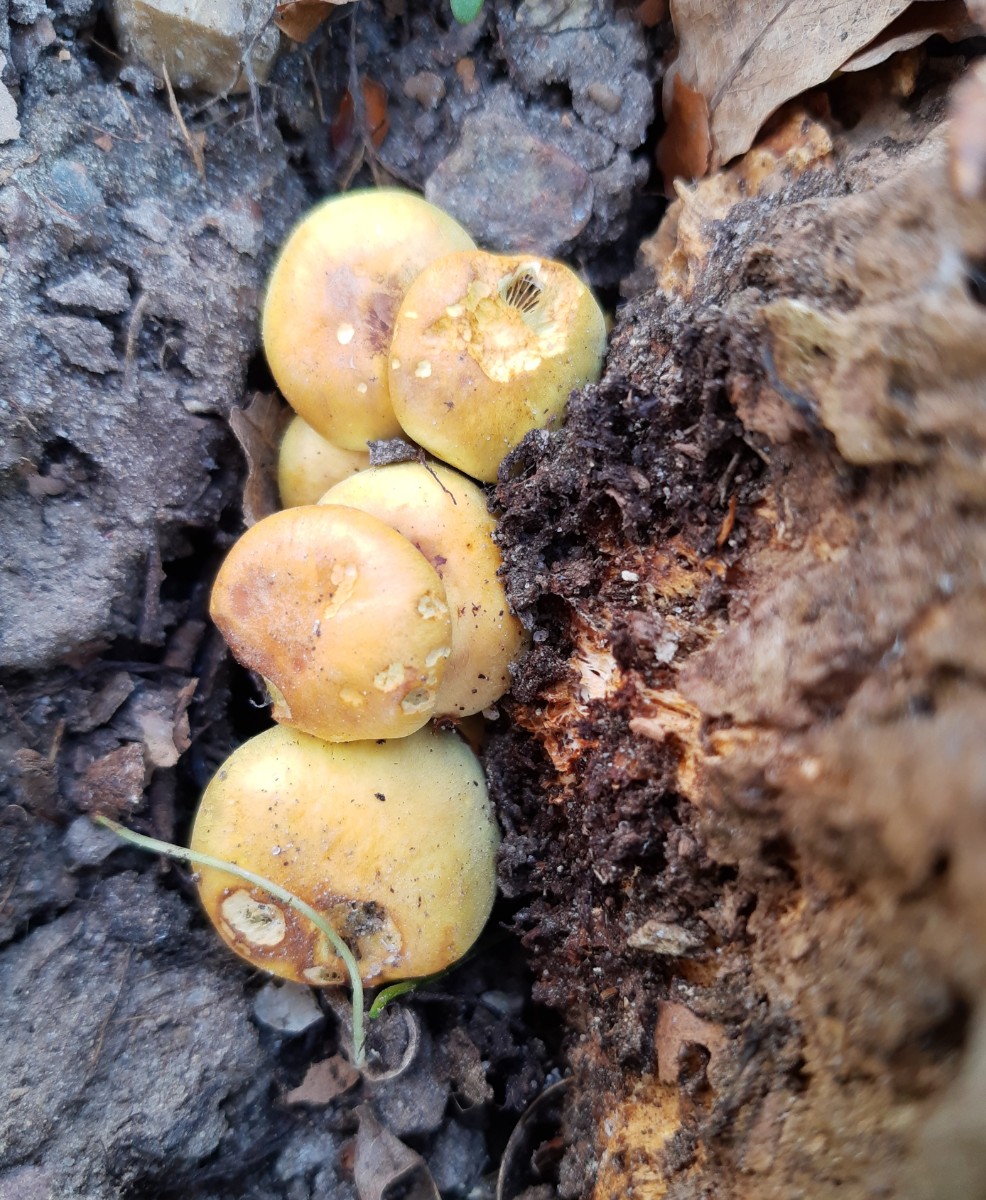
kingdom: Fungi
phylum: Basidiomycota
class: Agaricomycetes
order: Agaricales
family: Strophariaceae
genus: Hypholoma
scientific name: Hypholoma fasciculare
